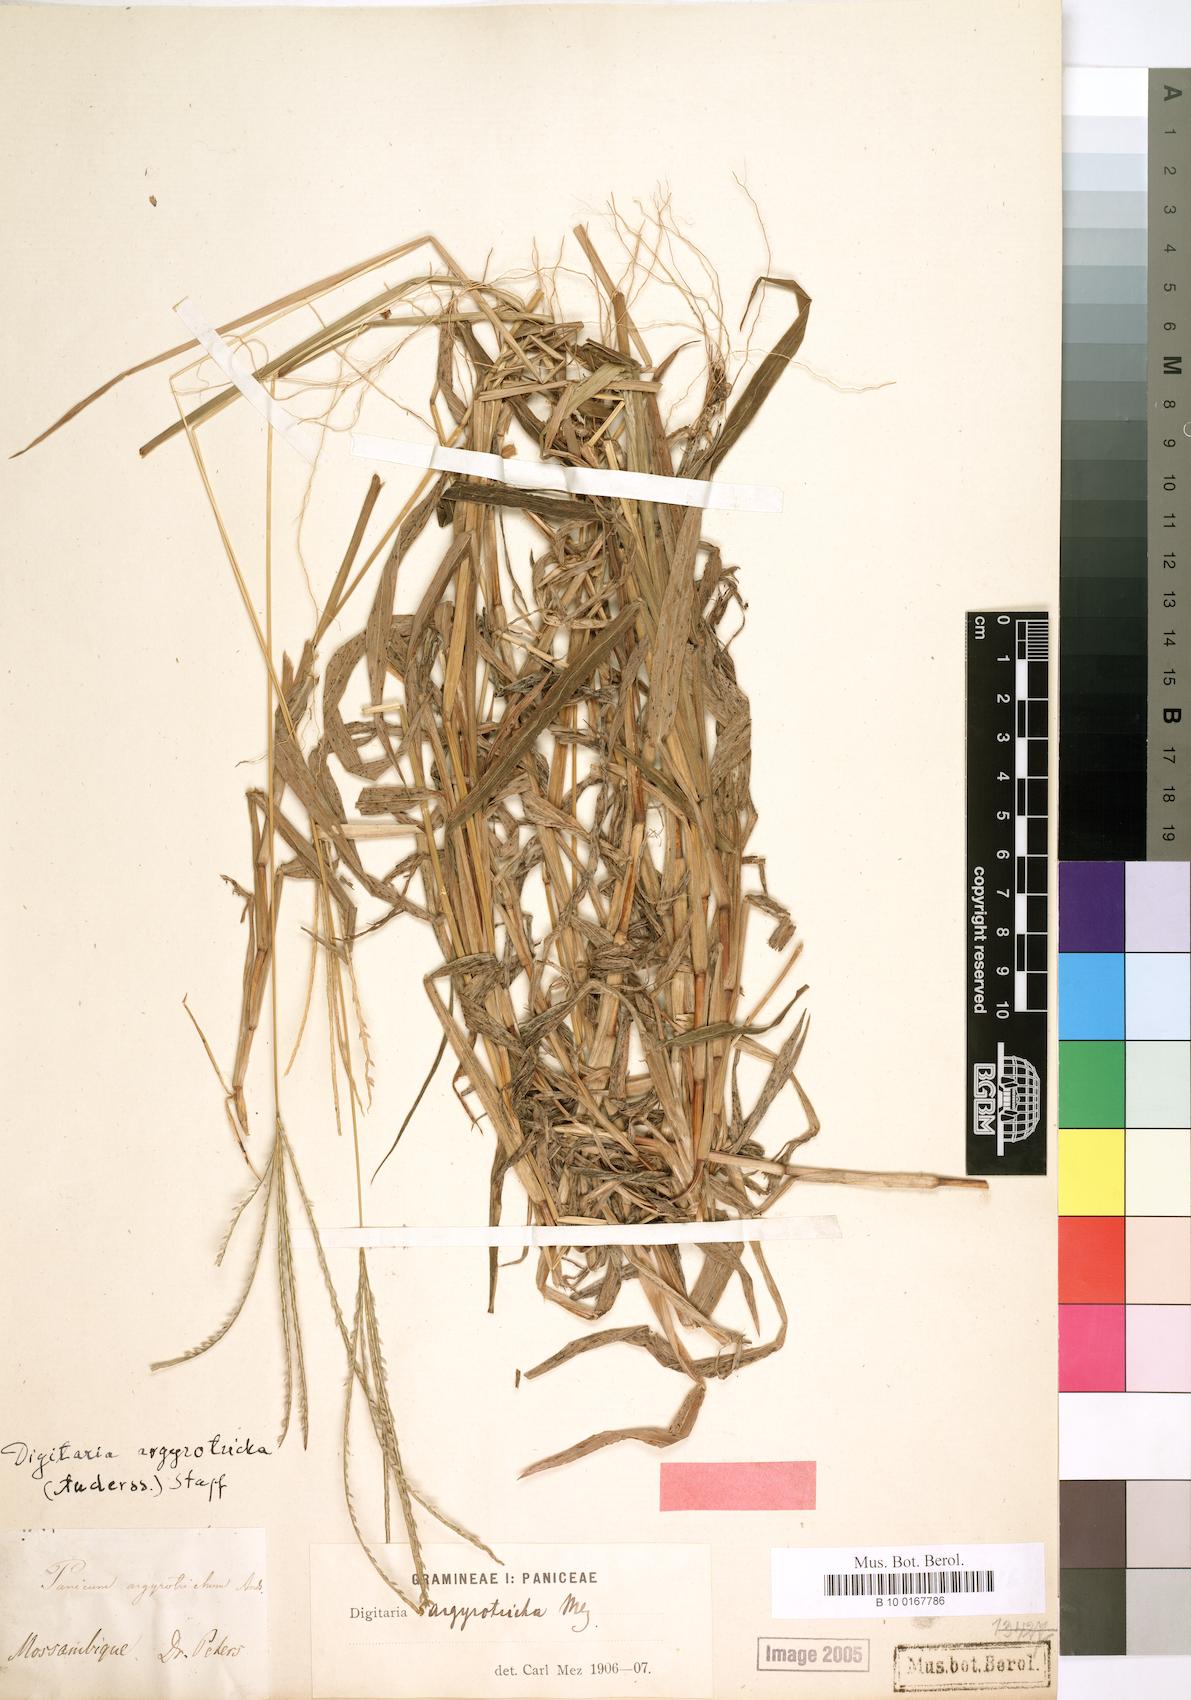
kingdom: Plantae
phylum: Tracheophyta
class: Liliopsida
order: Poales
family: Poaceae
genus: Digitaria
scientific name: Digitaria argyrotricha
